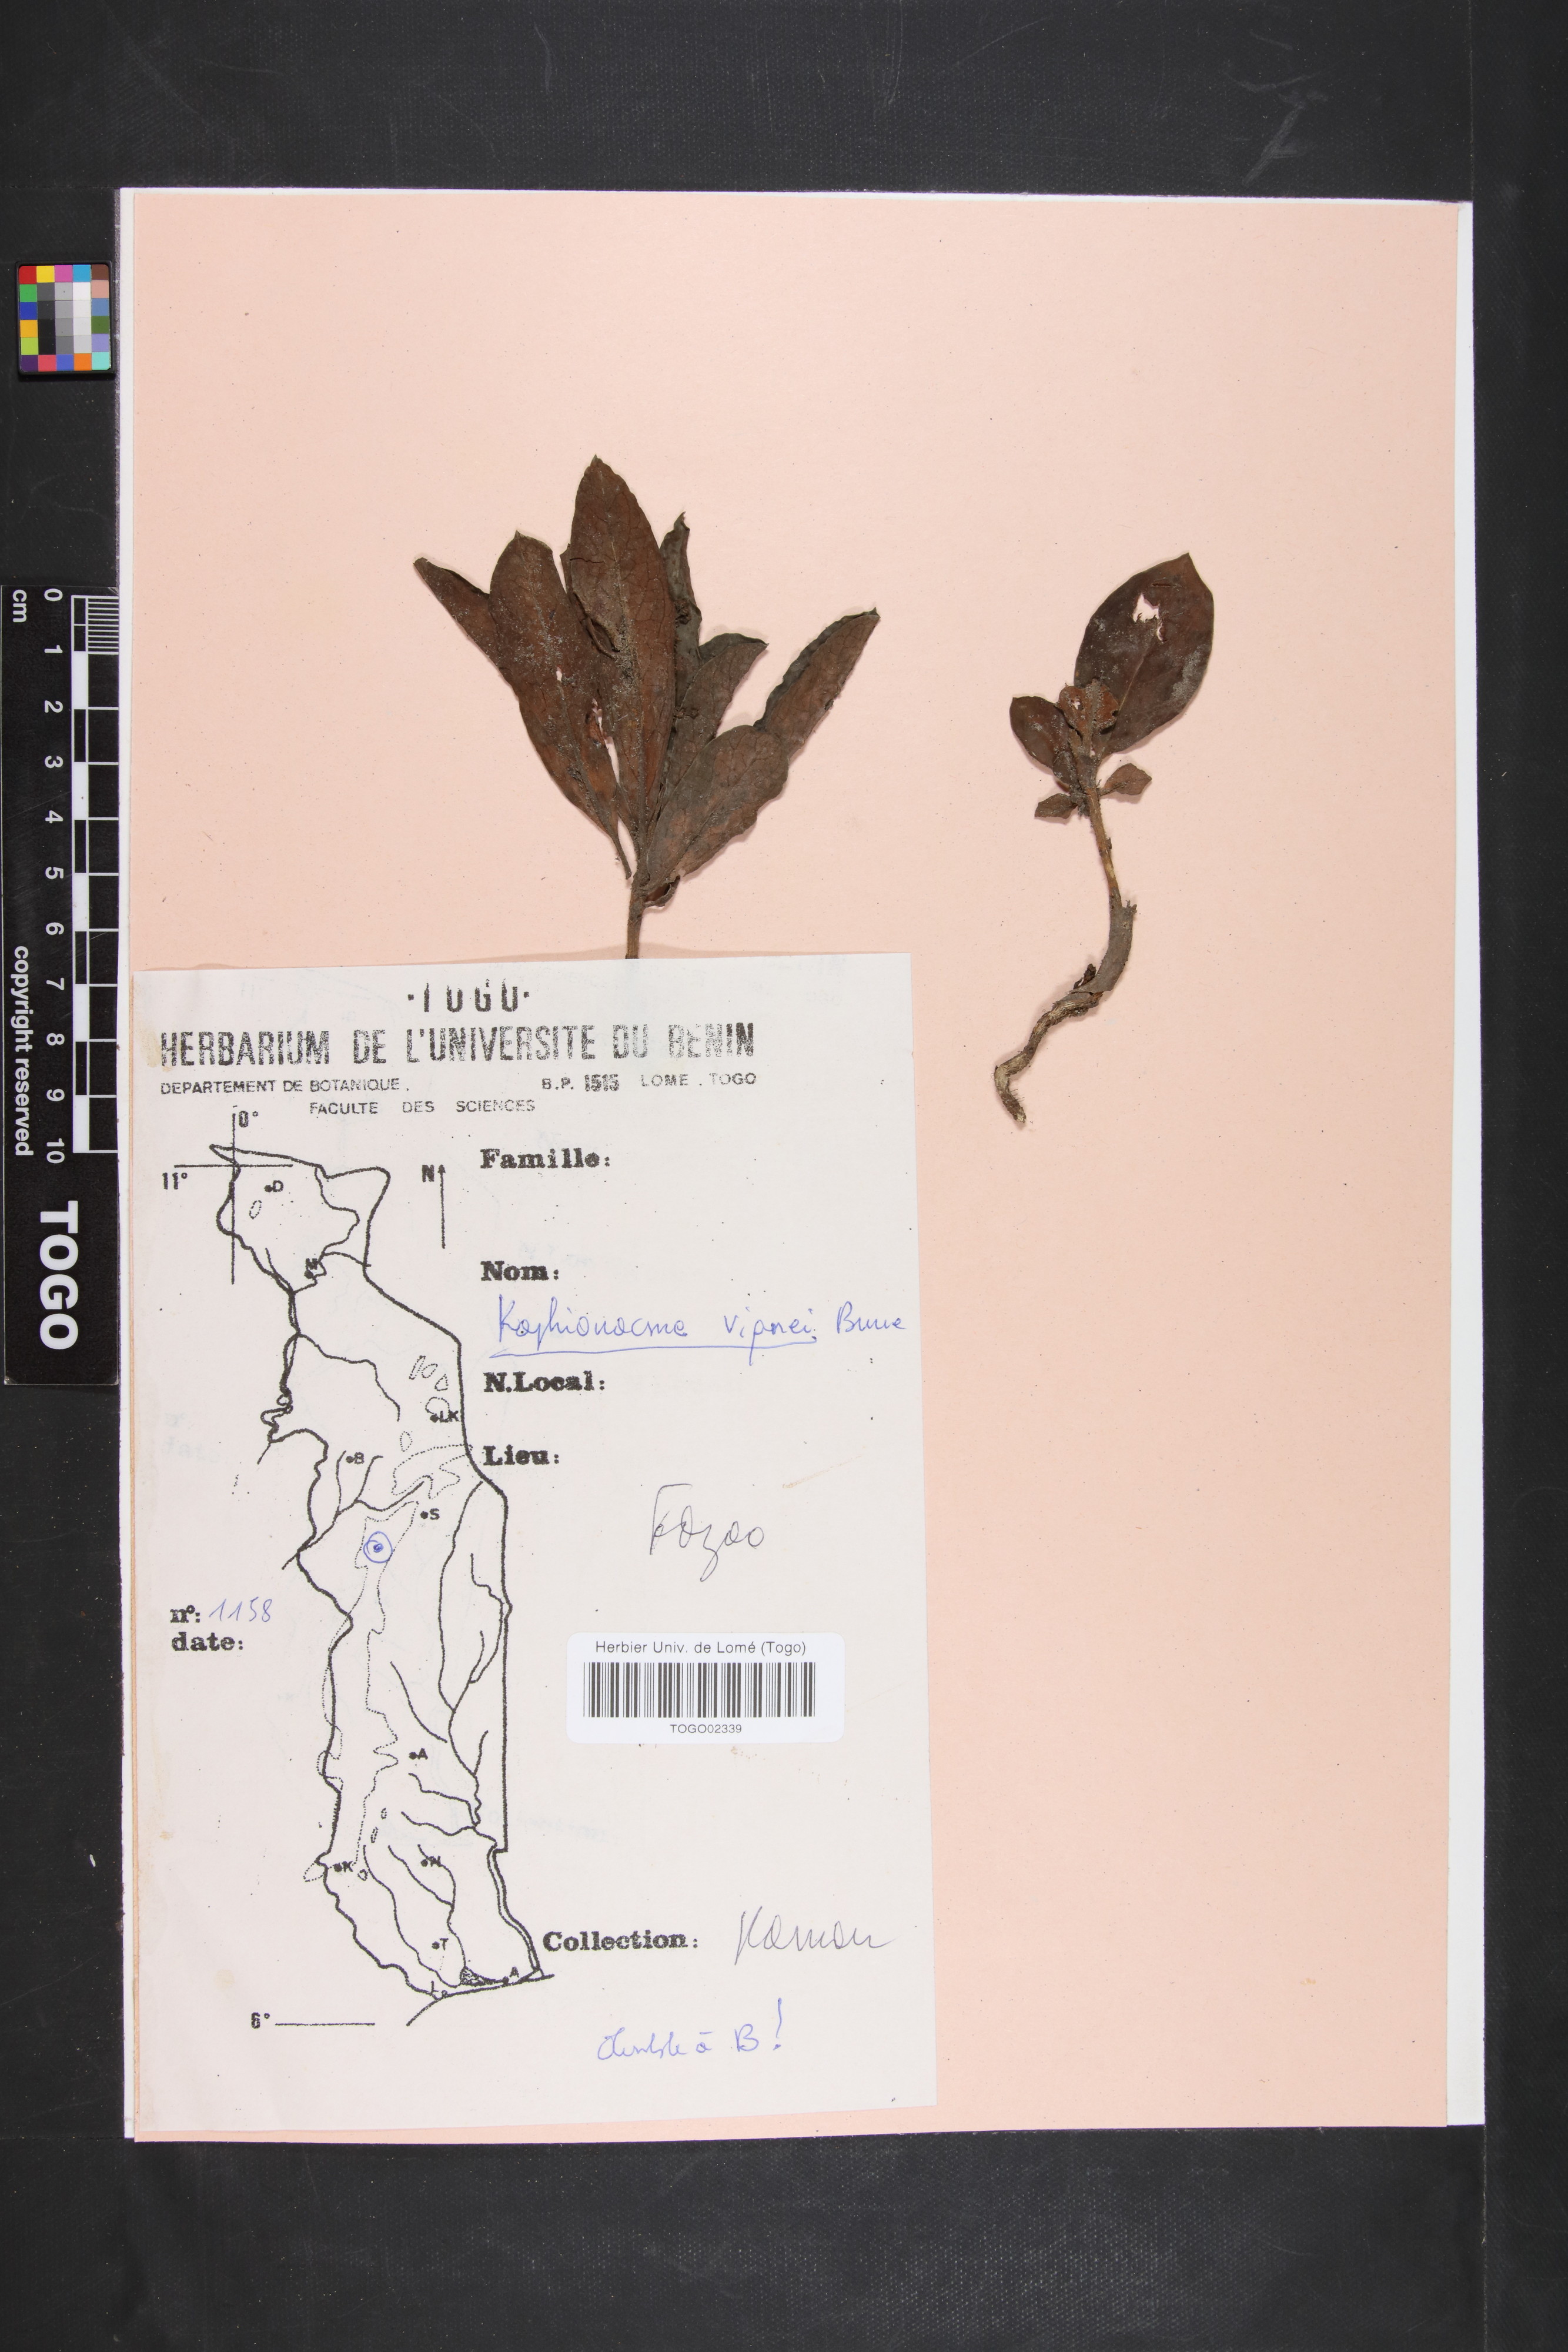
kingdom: Plantae
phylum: Tracheophyta
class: Magnoliopsida
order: Gentianales
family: Apocynaceae
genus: Raphionacme
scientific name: Raphionacme vignei
